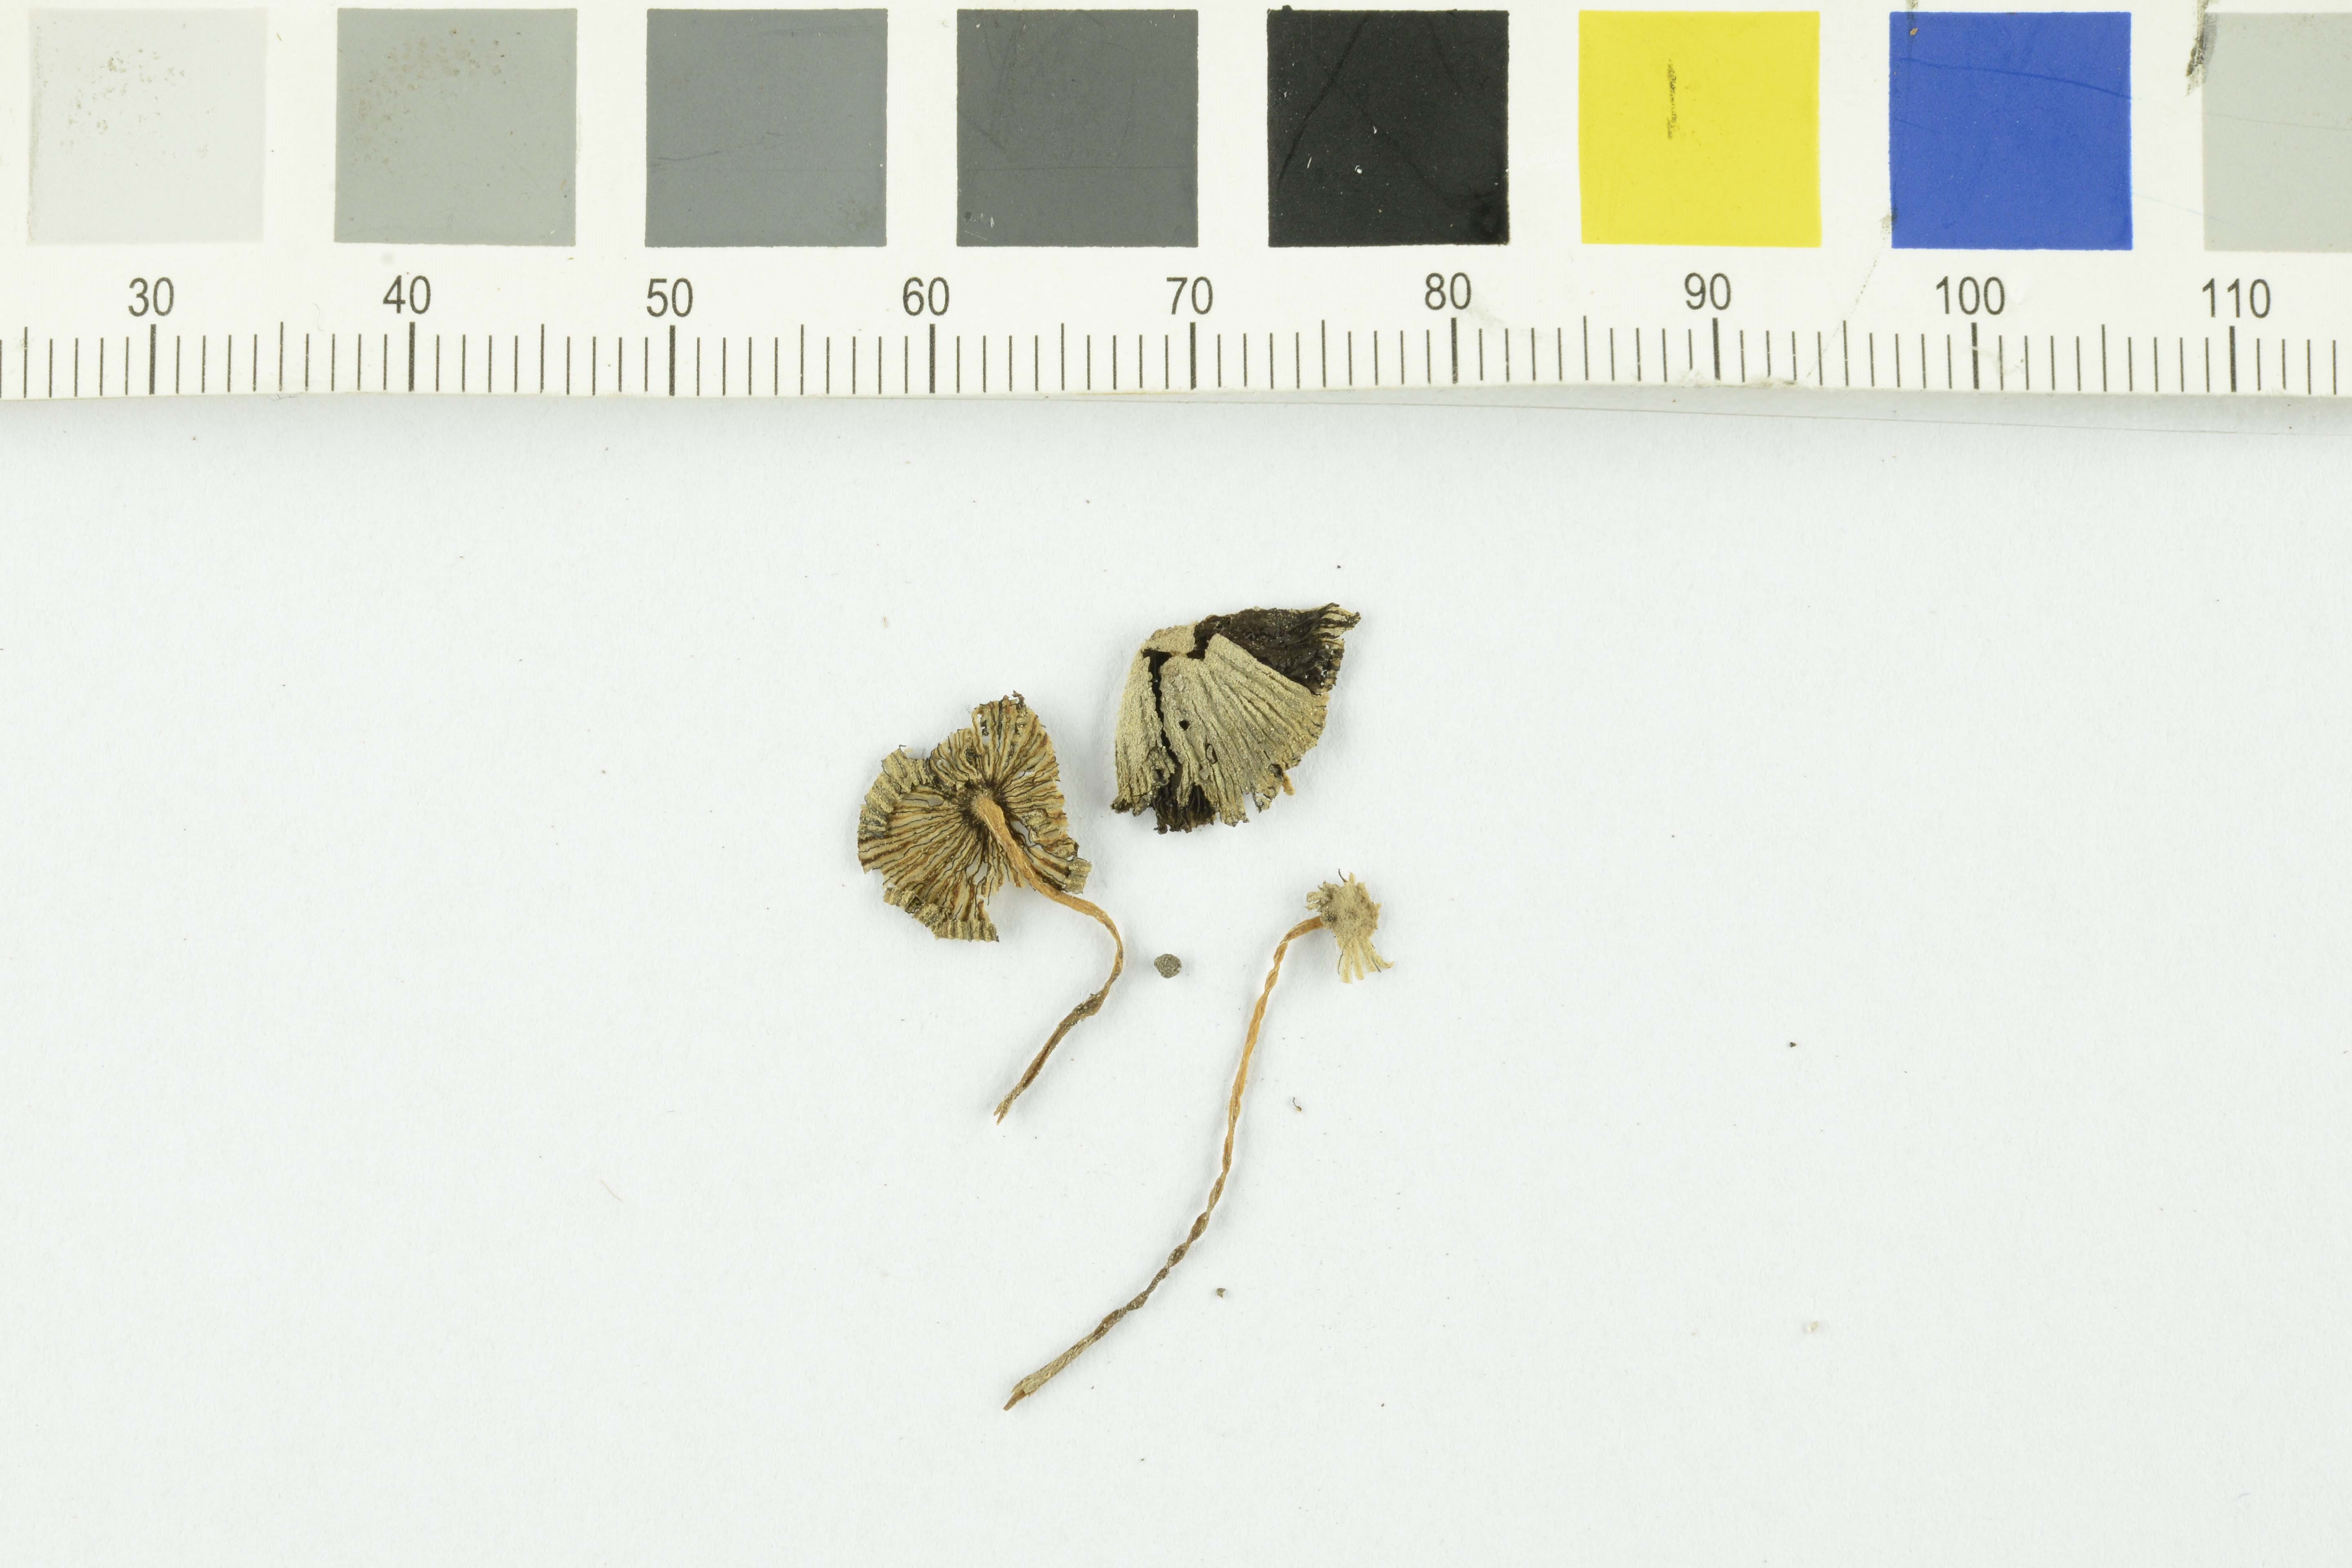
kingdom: Fungi
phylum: Basidiomycota
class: Agaricomycetes
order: Agaricales
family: Psathyrellaceae
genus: Coprinopsis
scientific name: Coprinopsis stercorea
